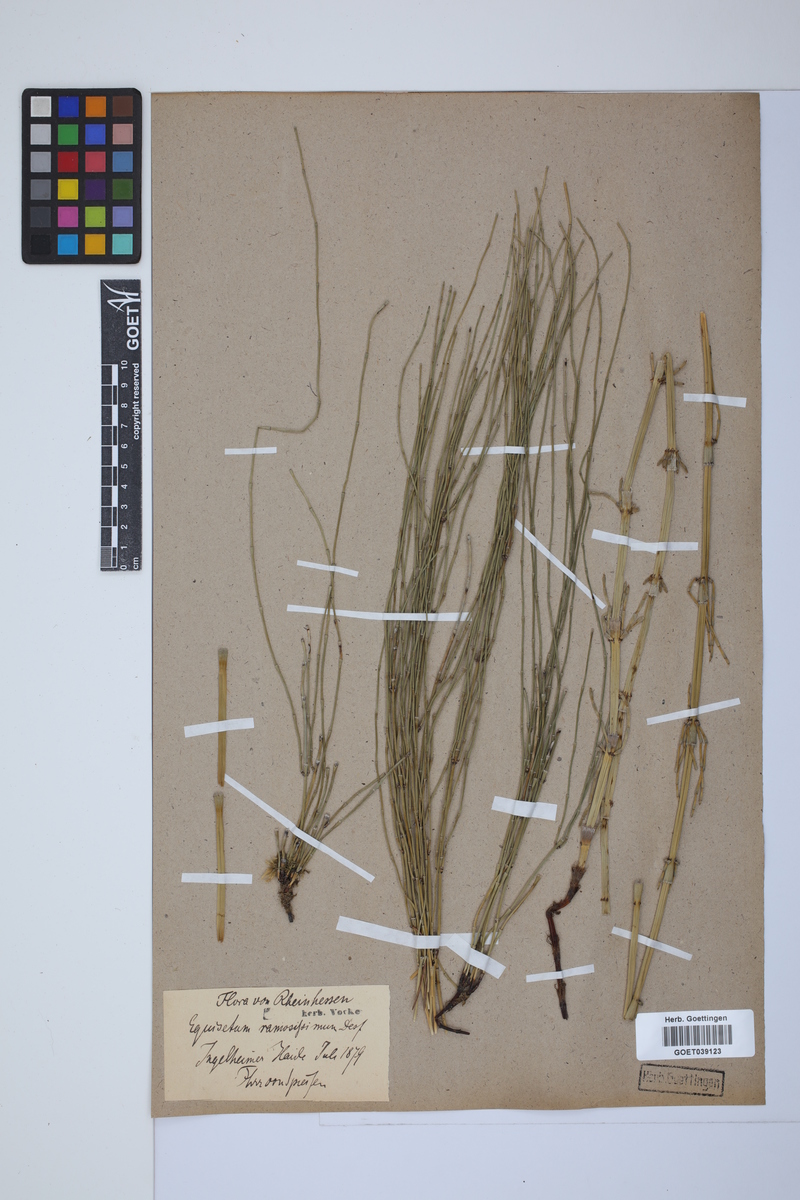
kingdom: Plantae
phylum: Tracheophyta
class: Polypodiopsida
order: Equisetales
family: Equisetaceae
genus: Equisetum
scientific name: Equisetum giganteum
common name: Giant horsetail
